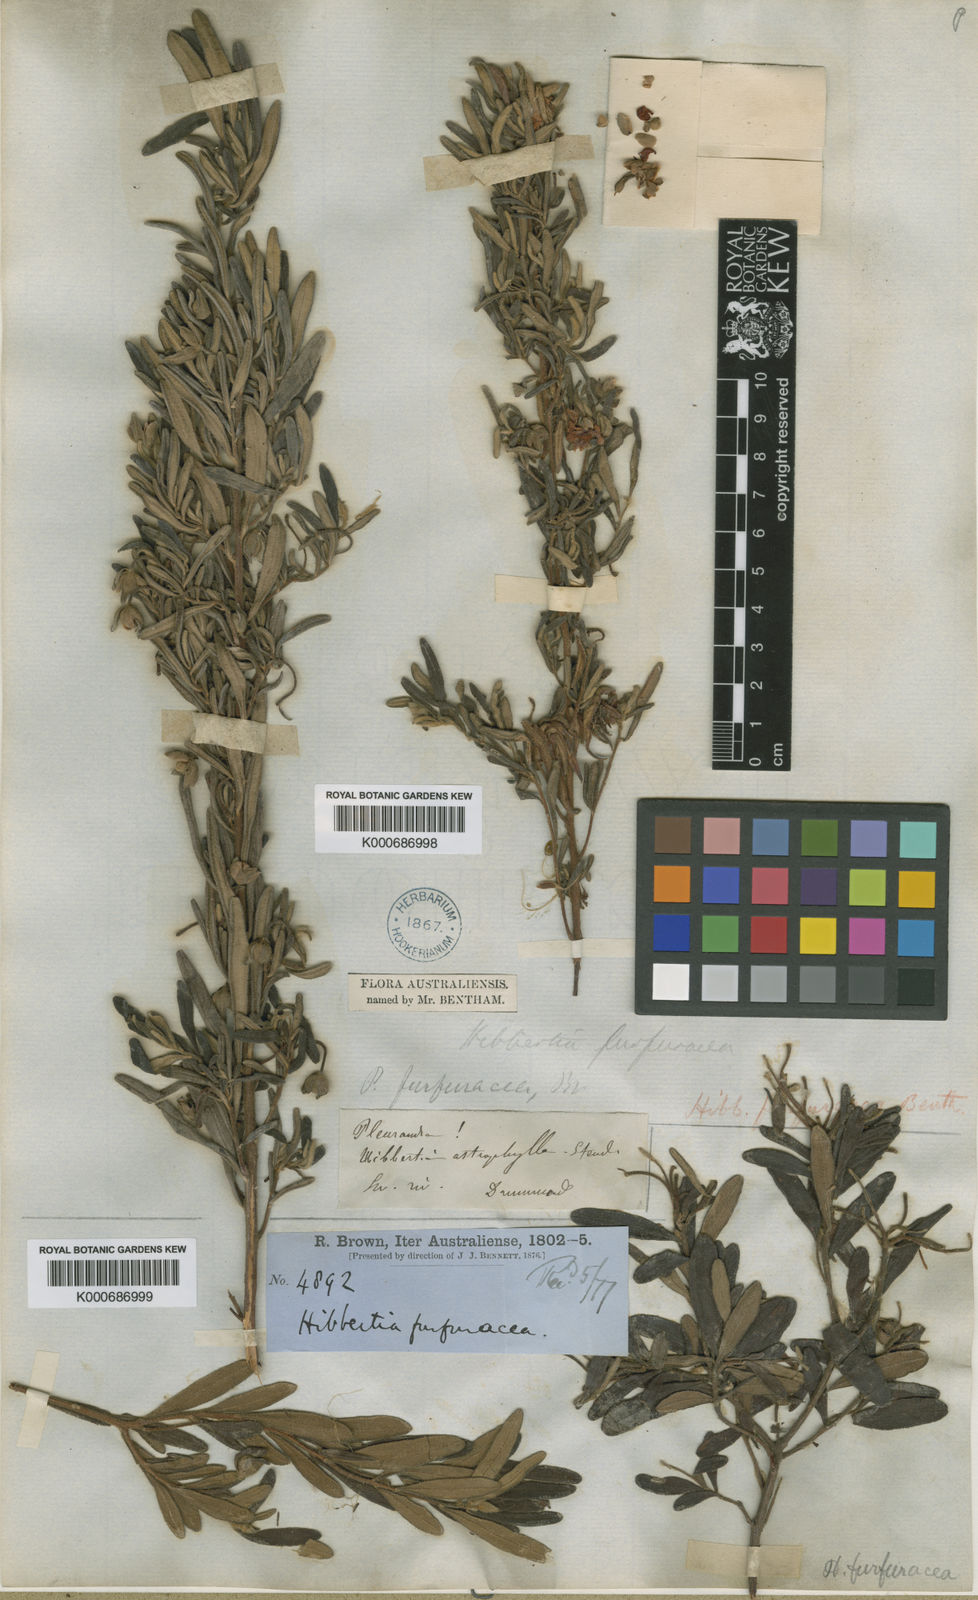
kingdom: Plantae
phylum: Tracheophyta
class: Magnoliopsida
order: Dilleniales
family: Dilleniaceae
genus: Hibbertia
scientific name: Hibbertia furfuracea
